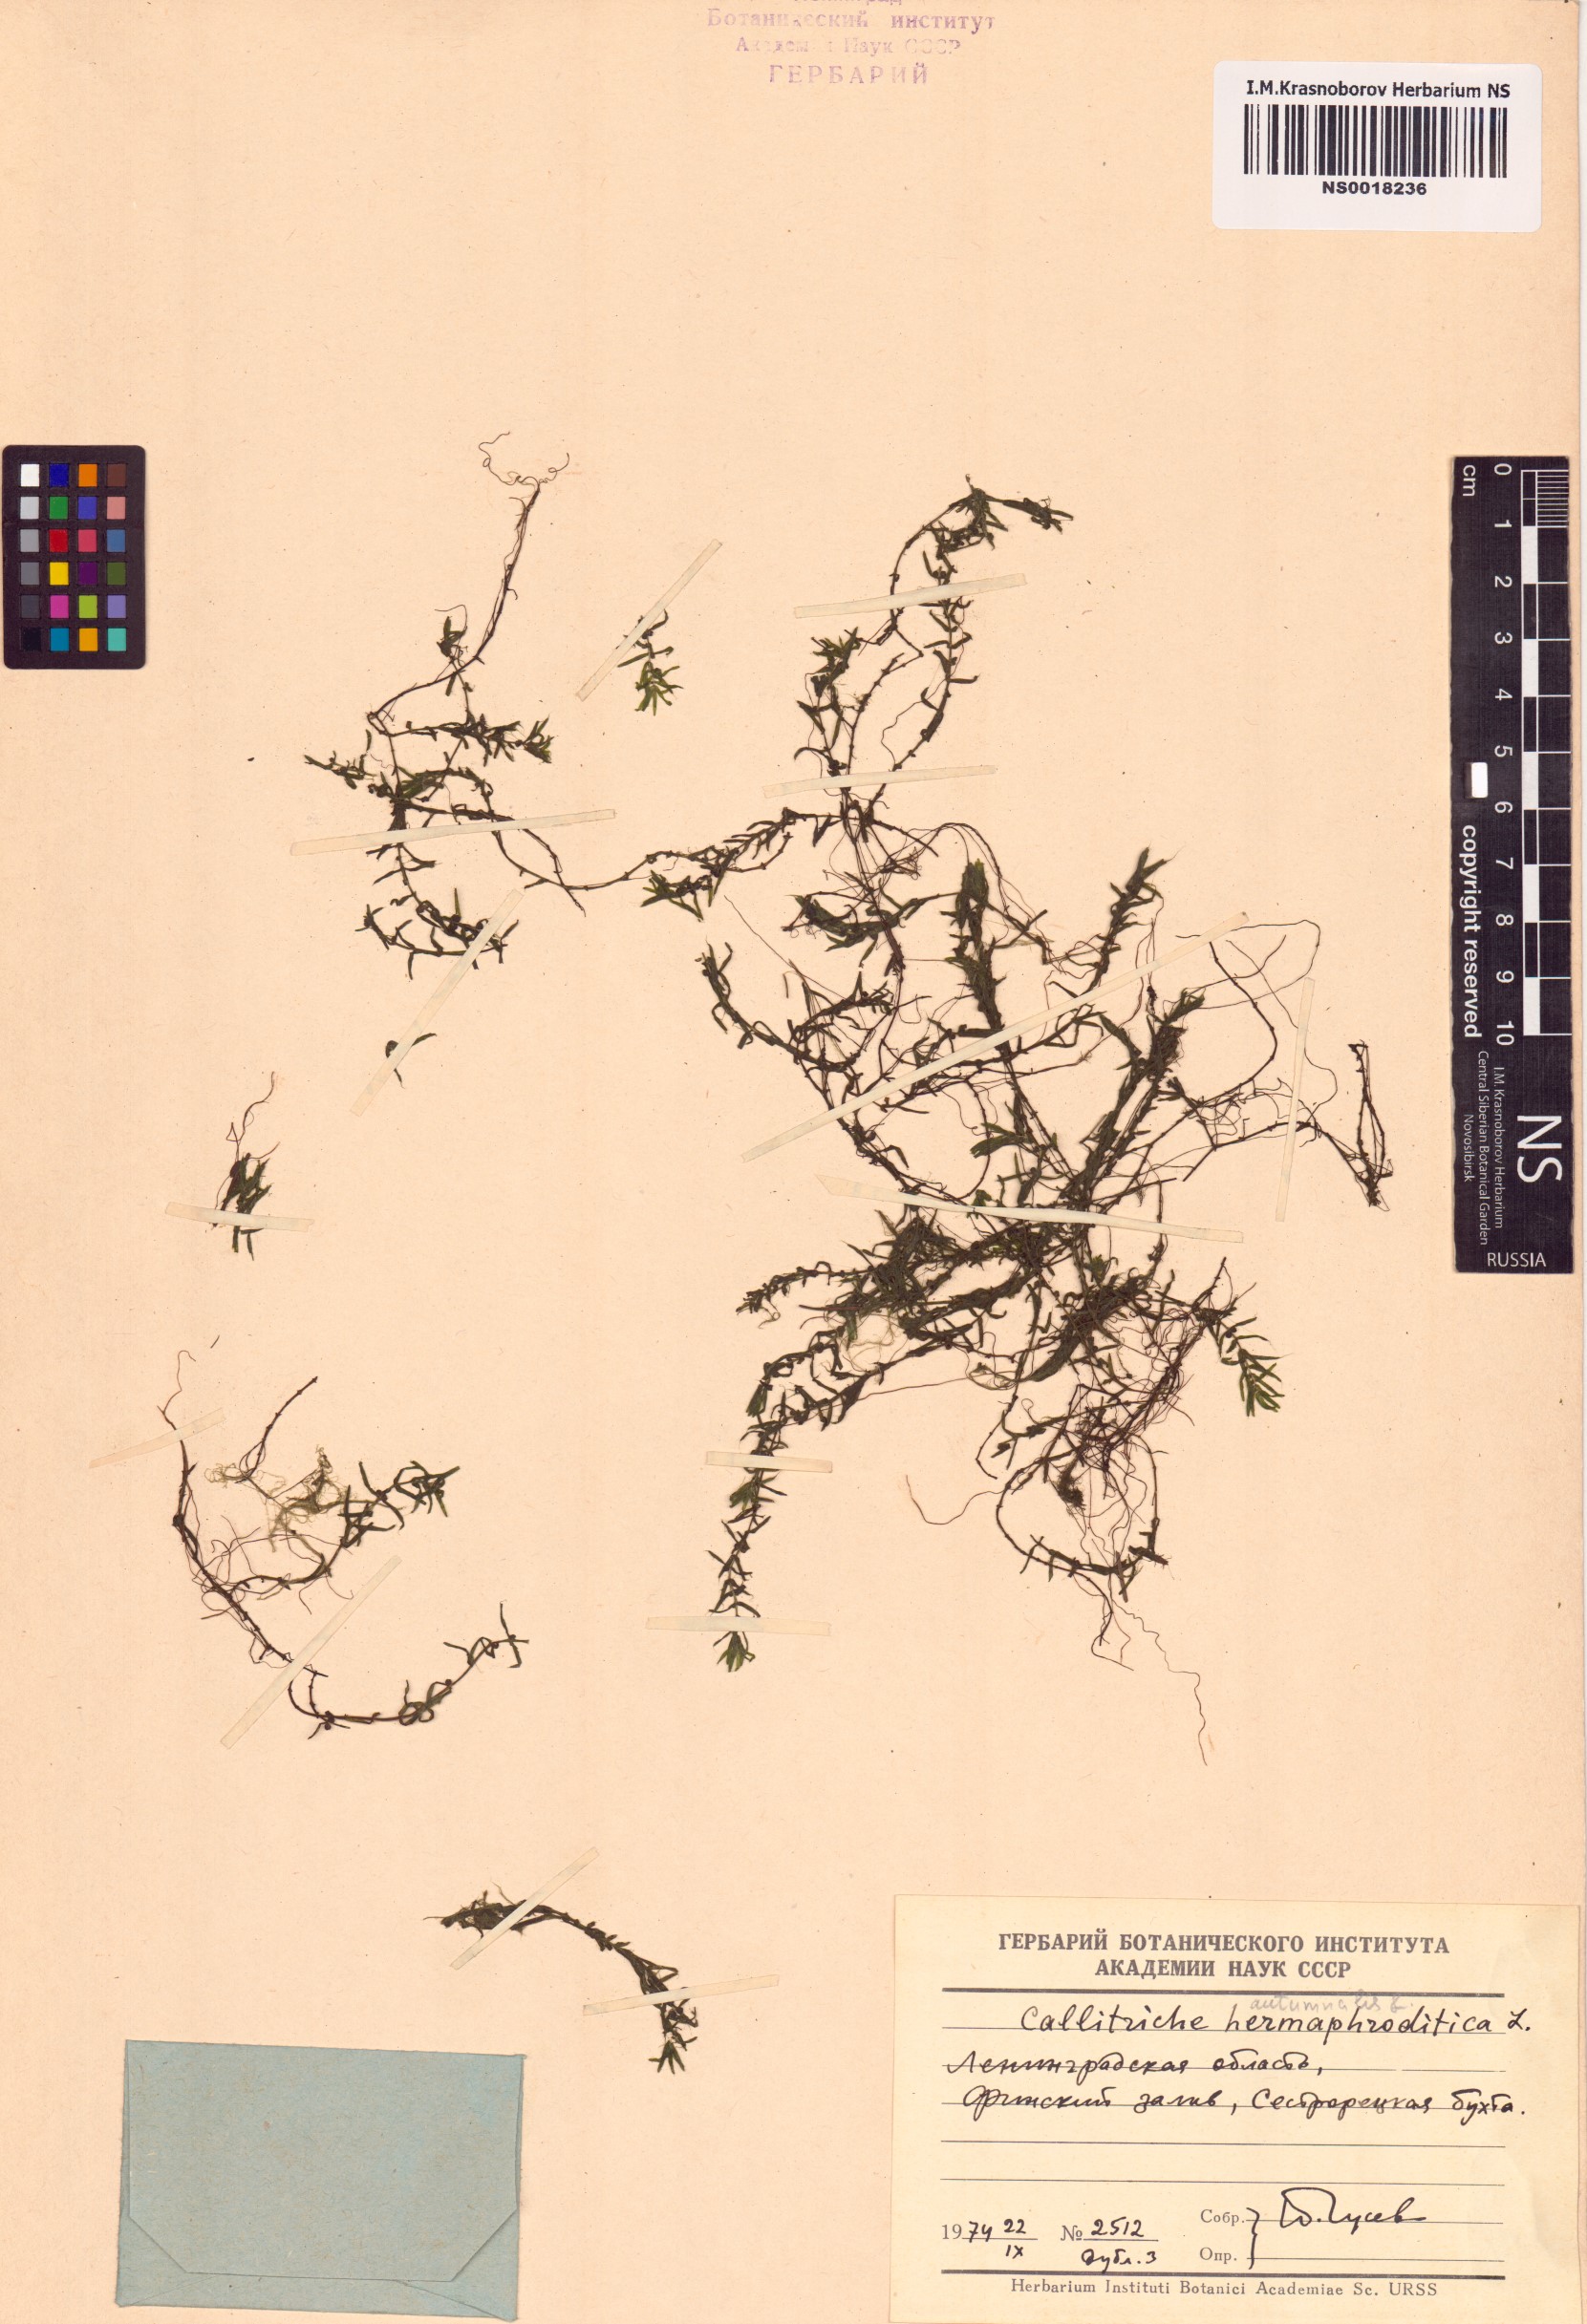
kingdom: Plantae
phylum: Tracheophyta
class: Magnoliopsida
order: Lamiales
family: Plantaginaceae
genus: Callitriche
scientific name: Callitriche hermaphroditica
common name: Autumnal water-starwort
